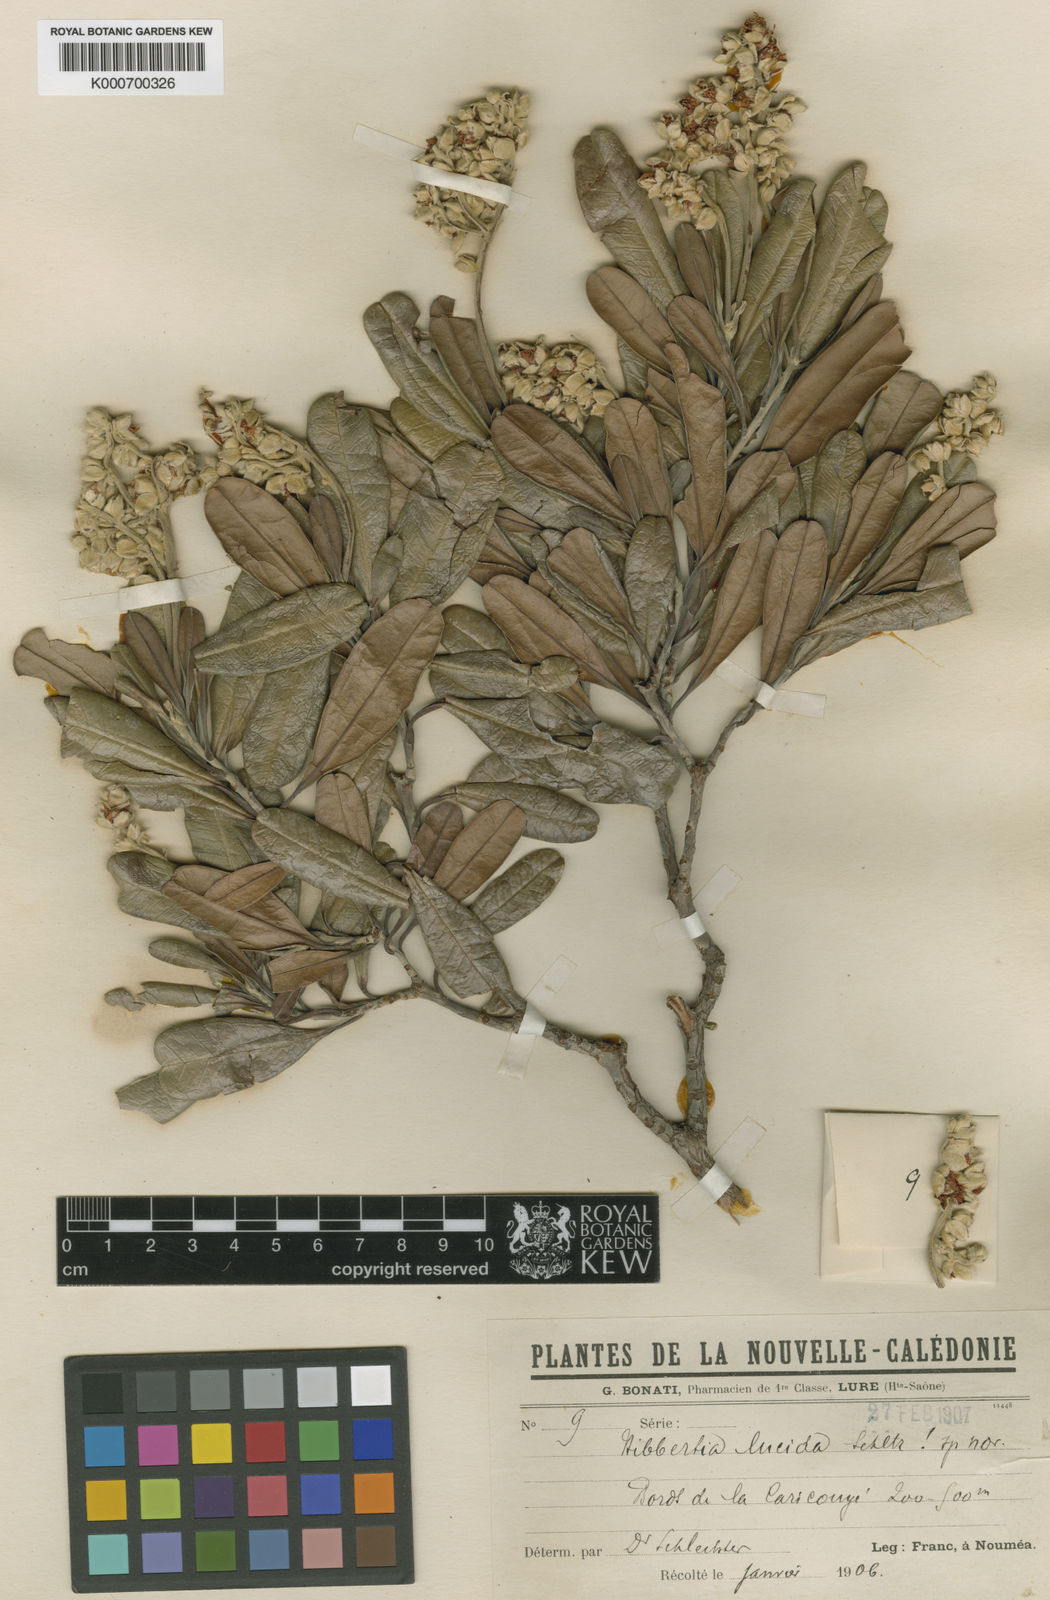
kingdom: Plantae
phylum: Tracheophyta
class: Magnoliopsida
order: Dilleniales
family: Dilleniaceae
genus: Hibbertia
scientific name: Hibbertia vieillardii
